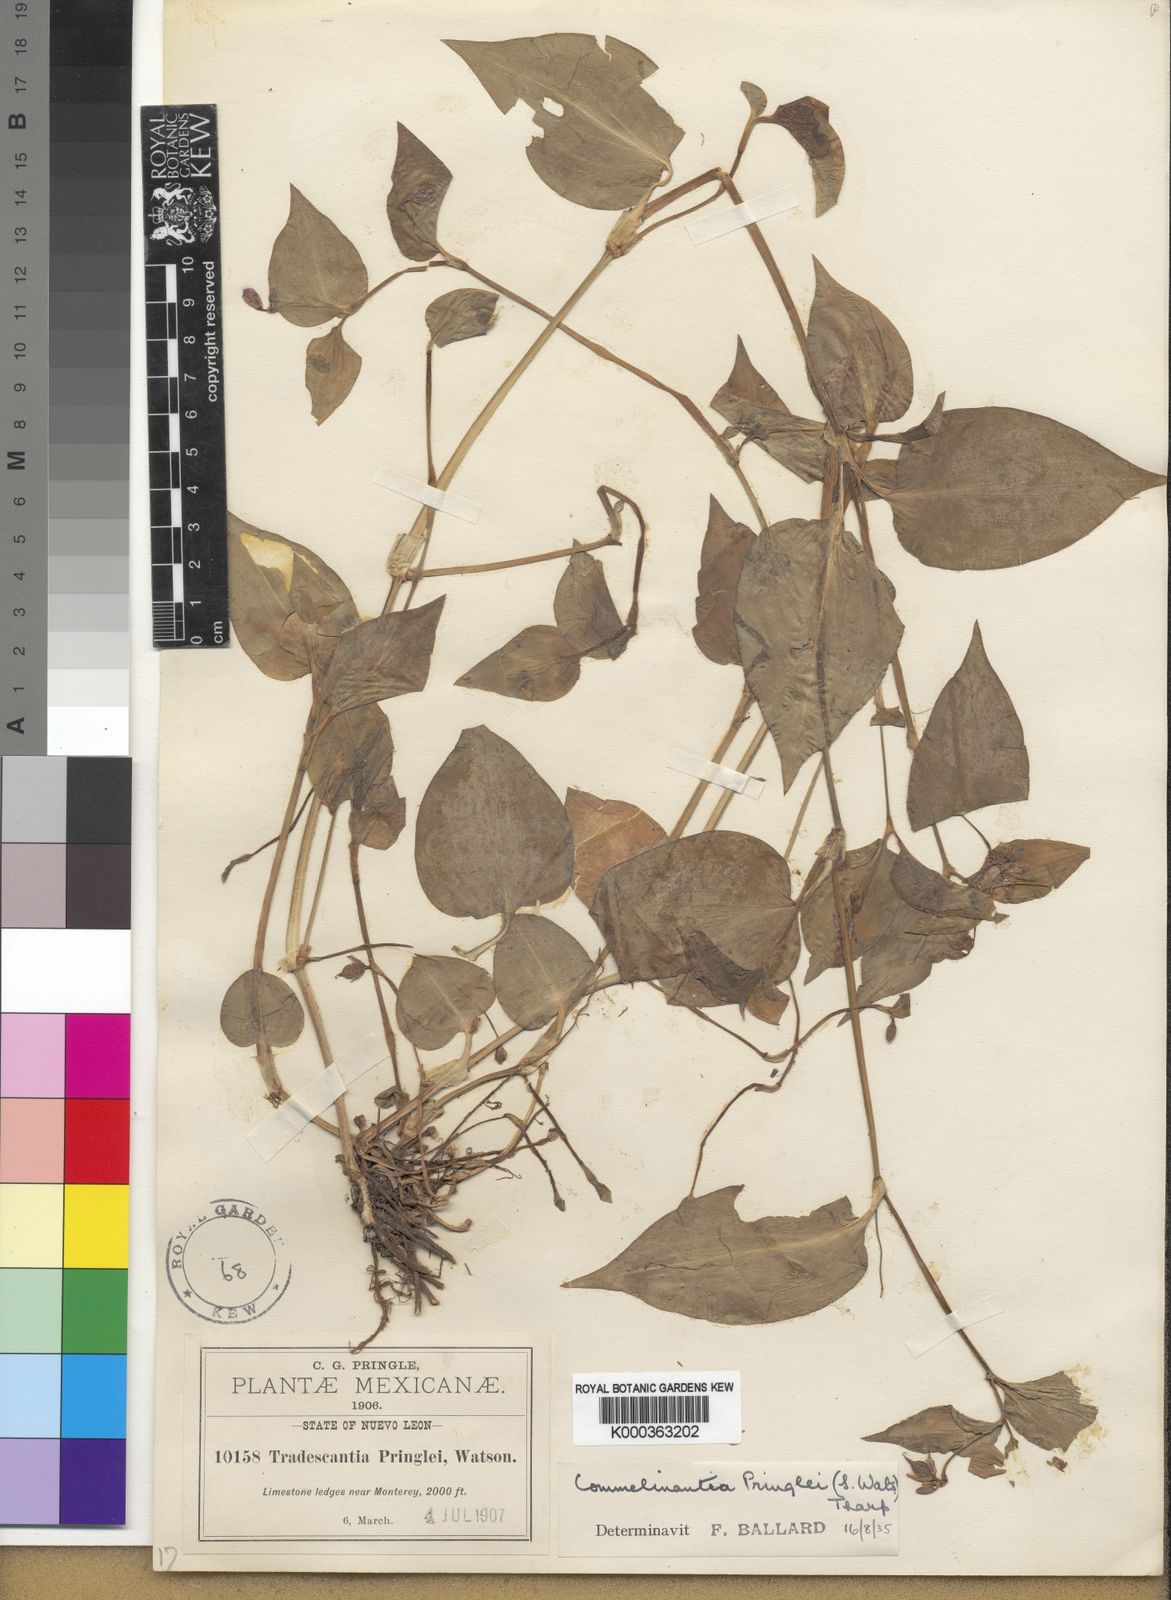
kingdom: Plantae
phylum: Tracheophyta
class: Liliopsida
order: Commelinales
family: Commelinaceae
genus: Tinantia
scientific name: Tinantia pringlei
